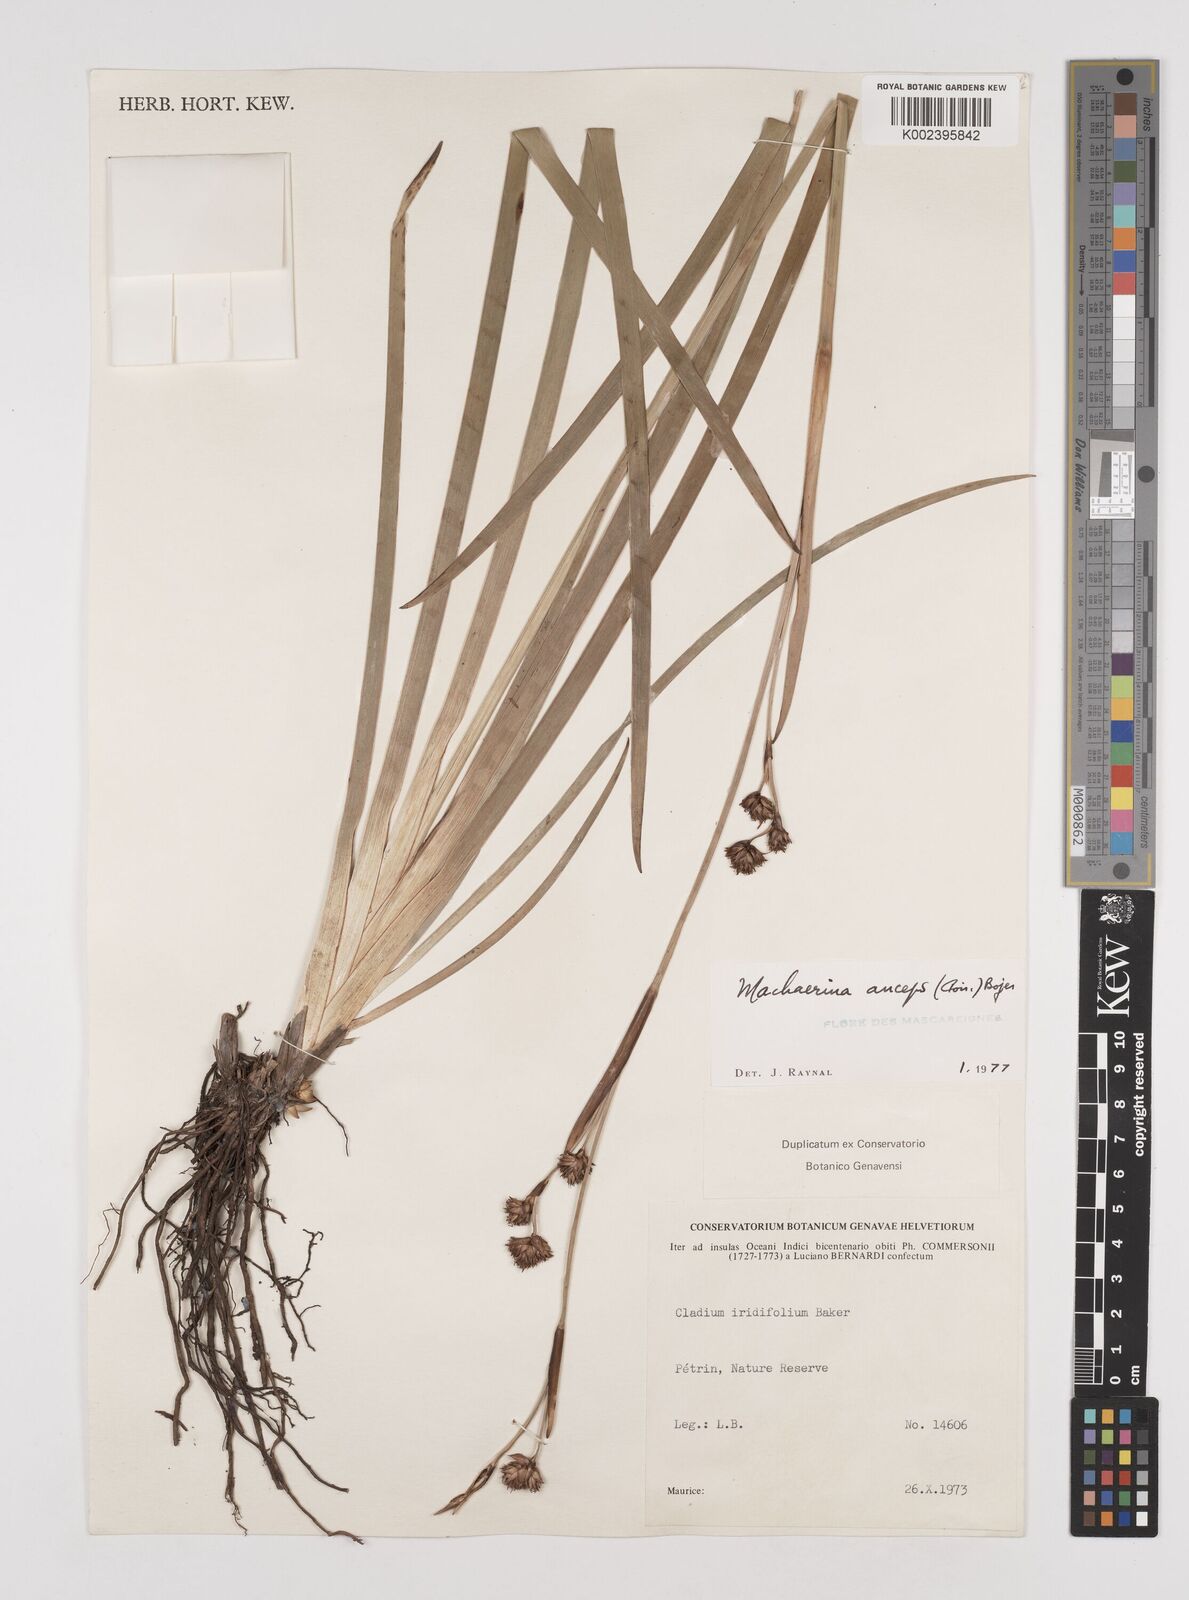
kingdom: Plantae
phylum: Tracheophyta
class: Liliopsida
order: Poales
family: Cyperaceae
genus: Machaerina
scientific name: Machaerina anceps
